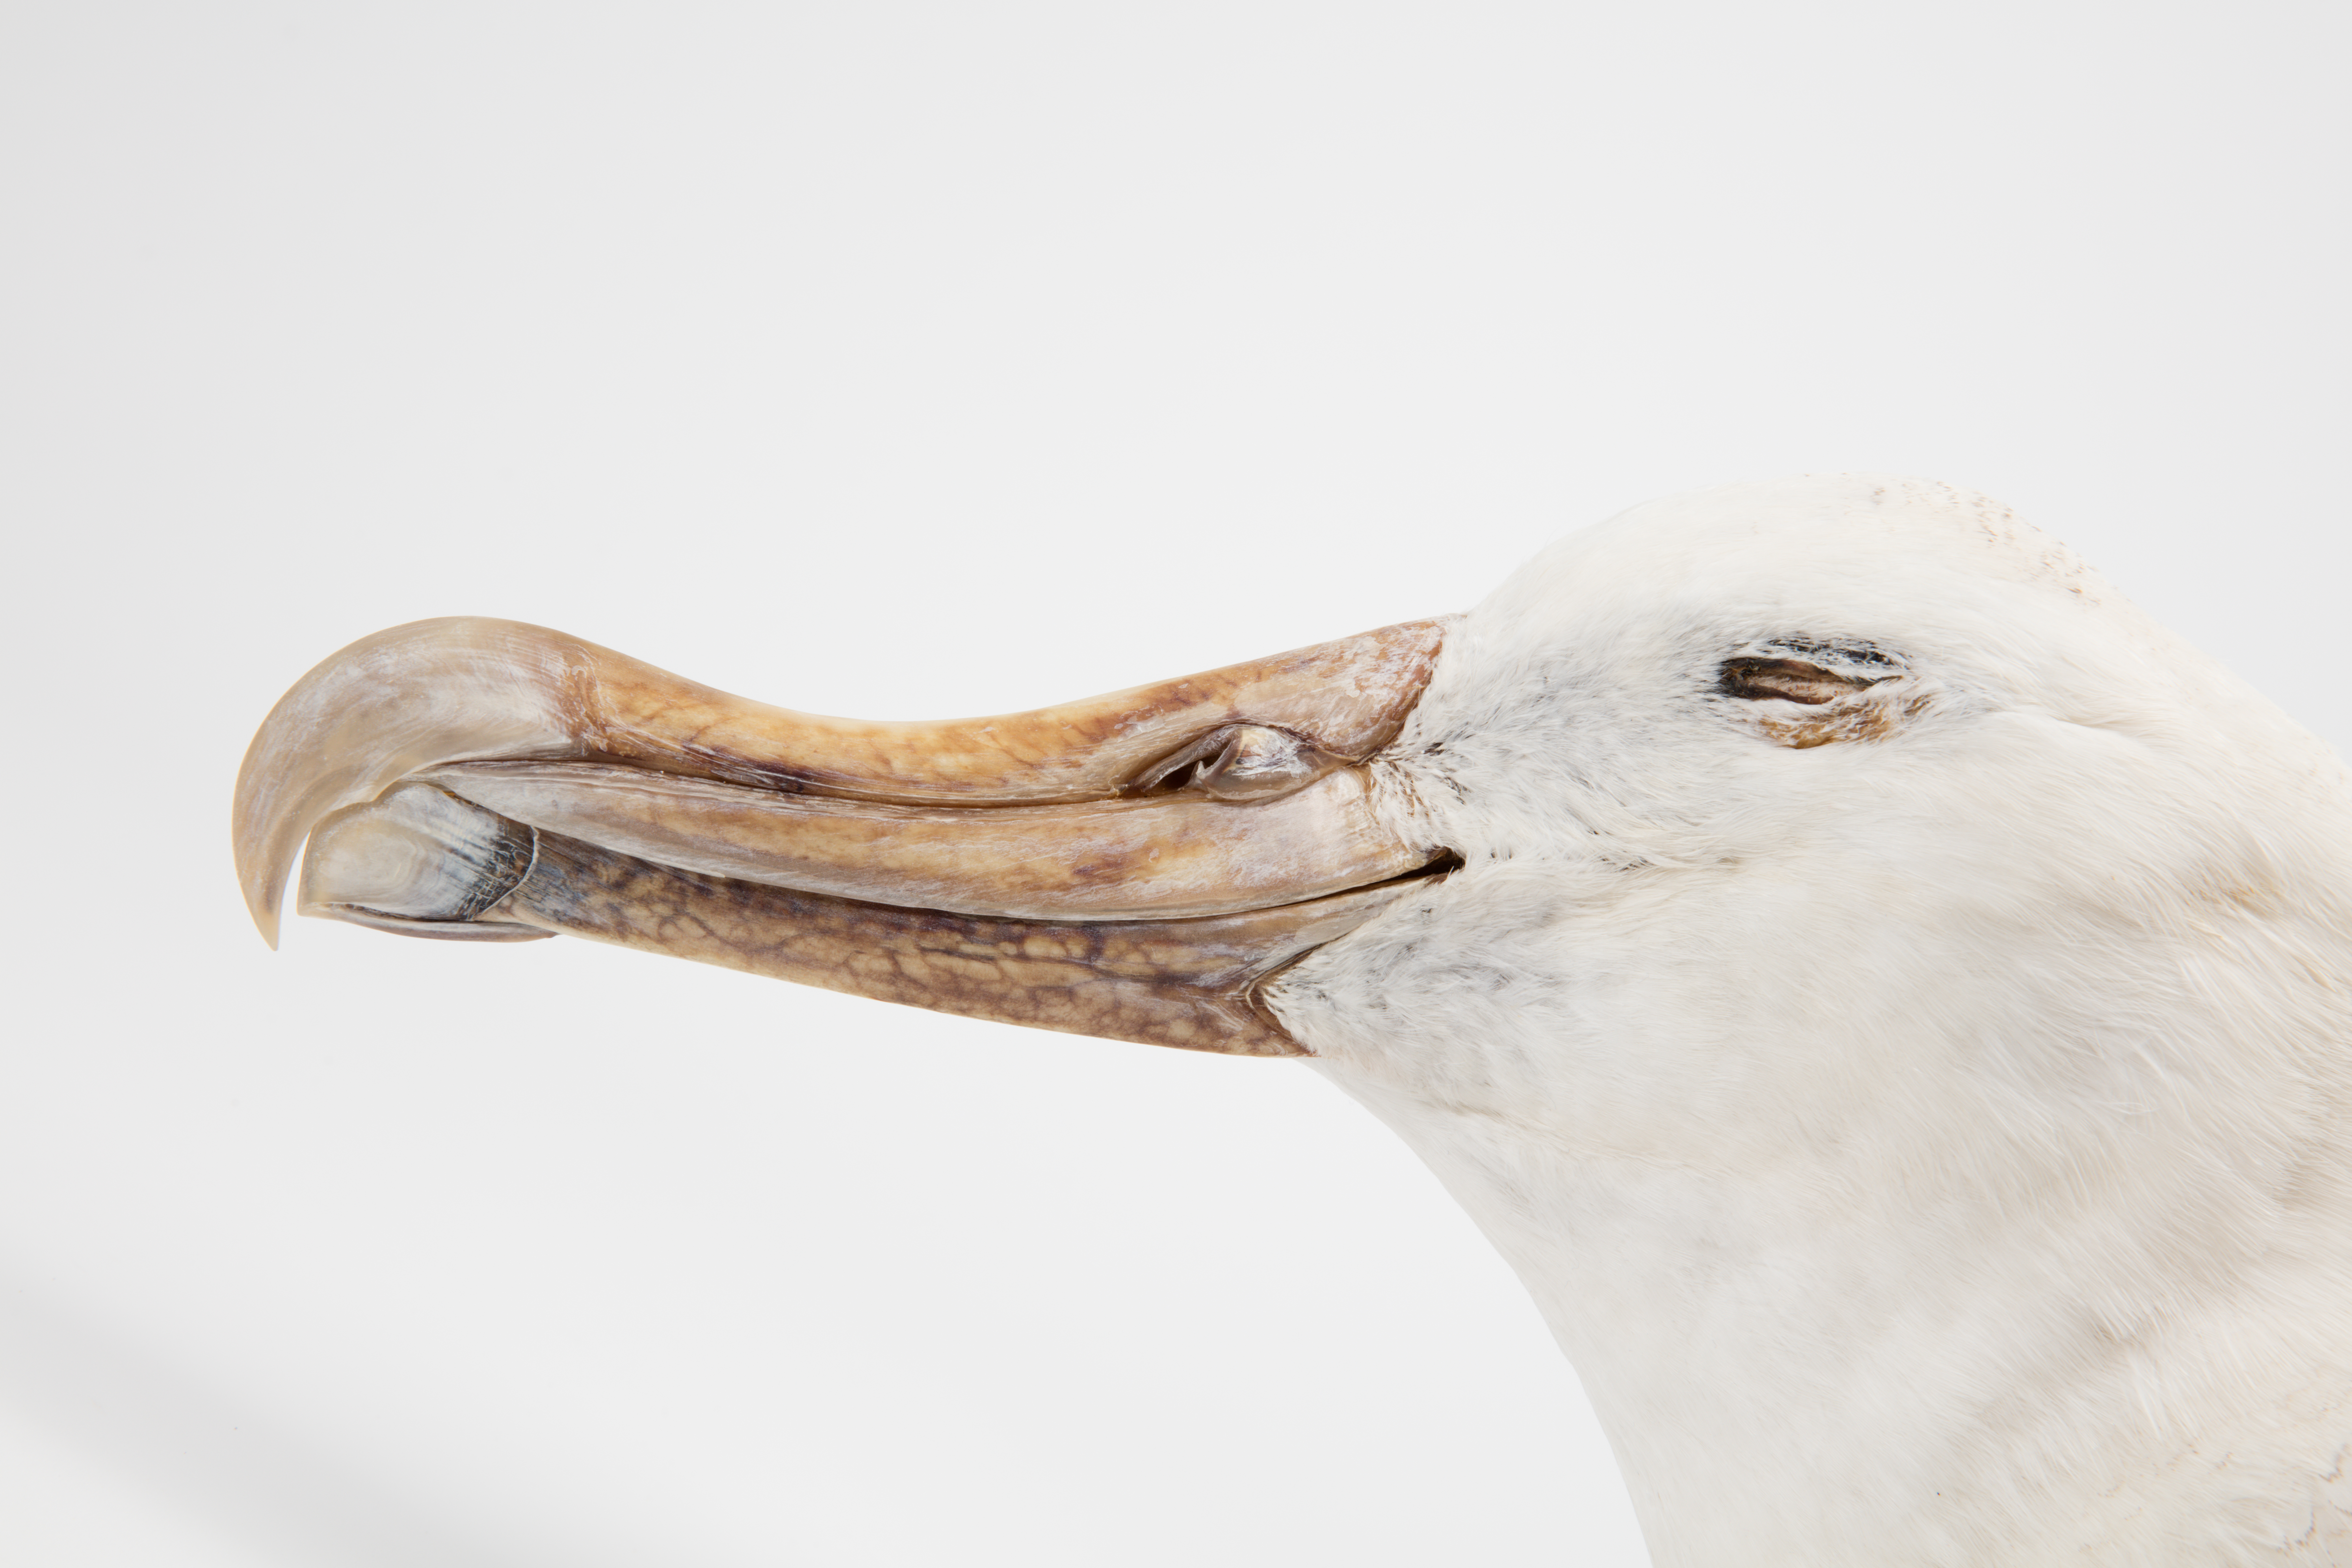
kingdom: Animalia
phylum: Chordata
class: Aves
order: Procellariiformes
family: Diomedeidae
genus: Diomedea
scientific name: Diomedea antipodensis
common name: Antipodean albatross
